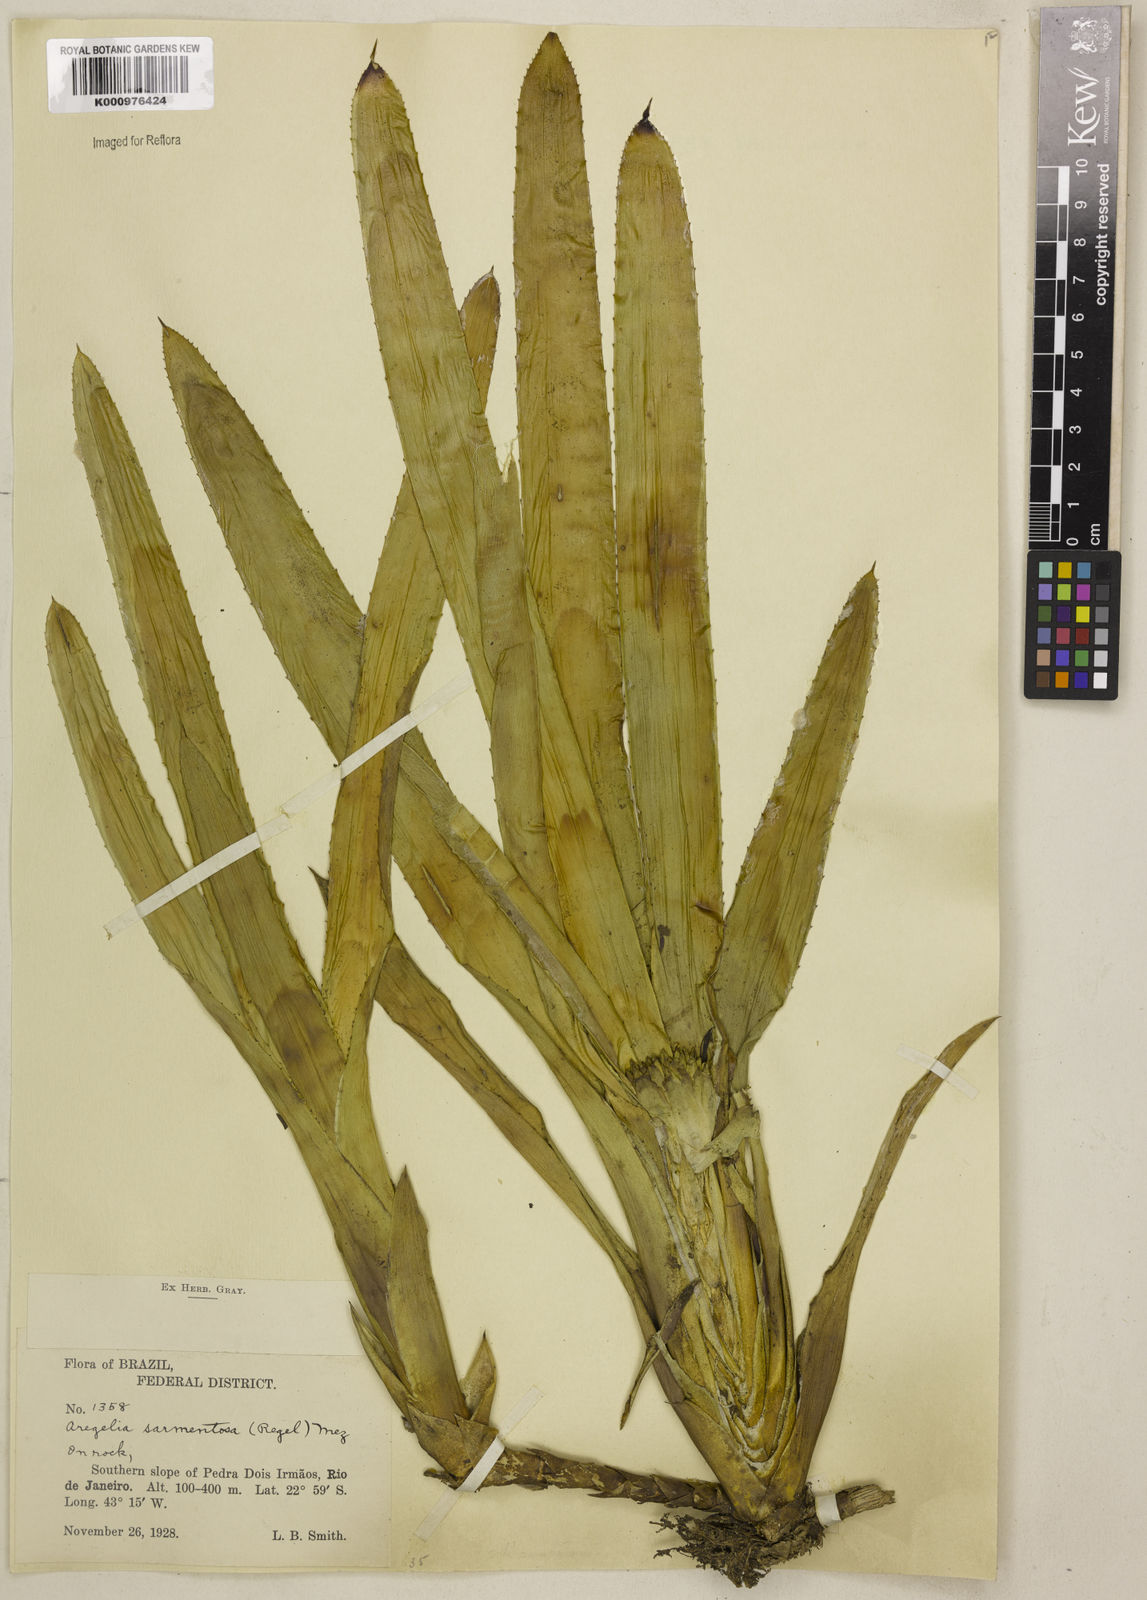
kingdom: Plantae
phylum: Tracheophyta
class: Liliopsida
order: Poales
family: Bromeliaceae
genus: Neoregelia
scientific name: Neoregelia sarmentosa
